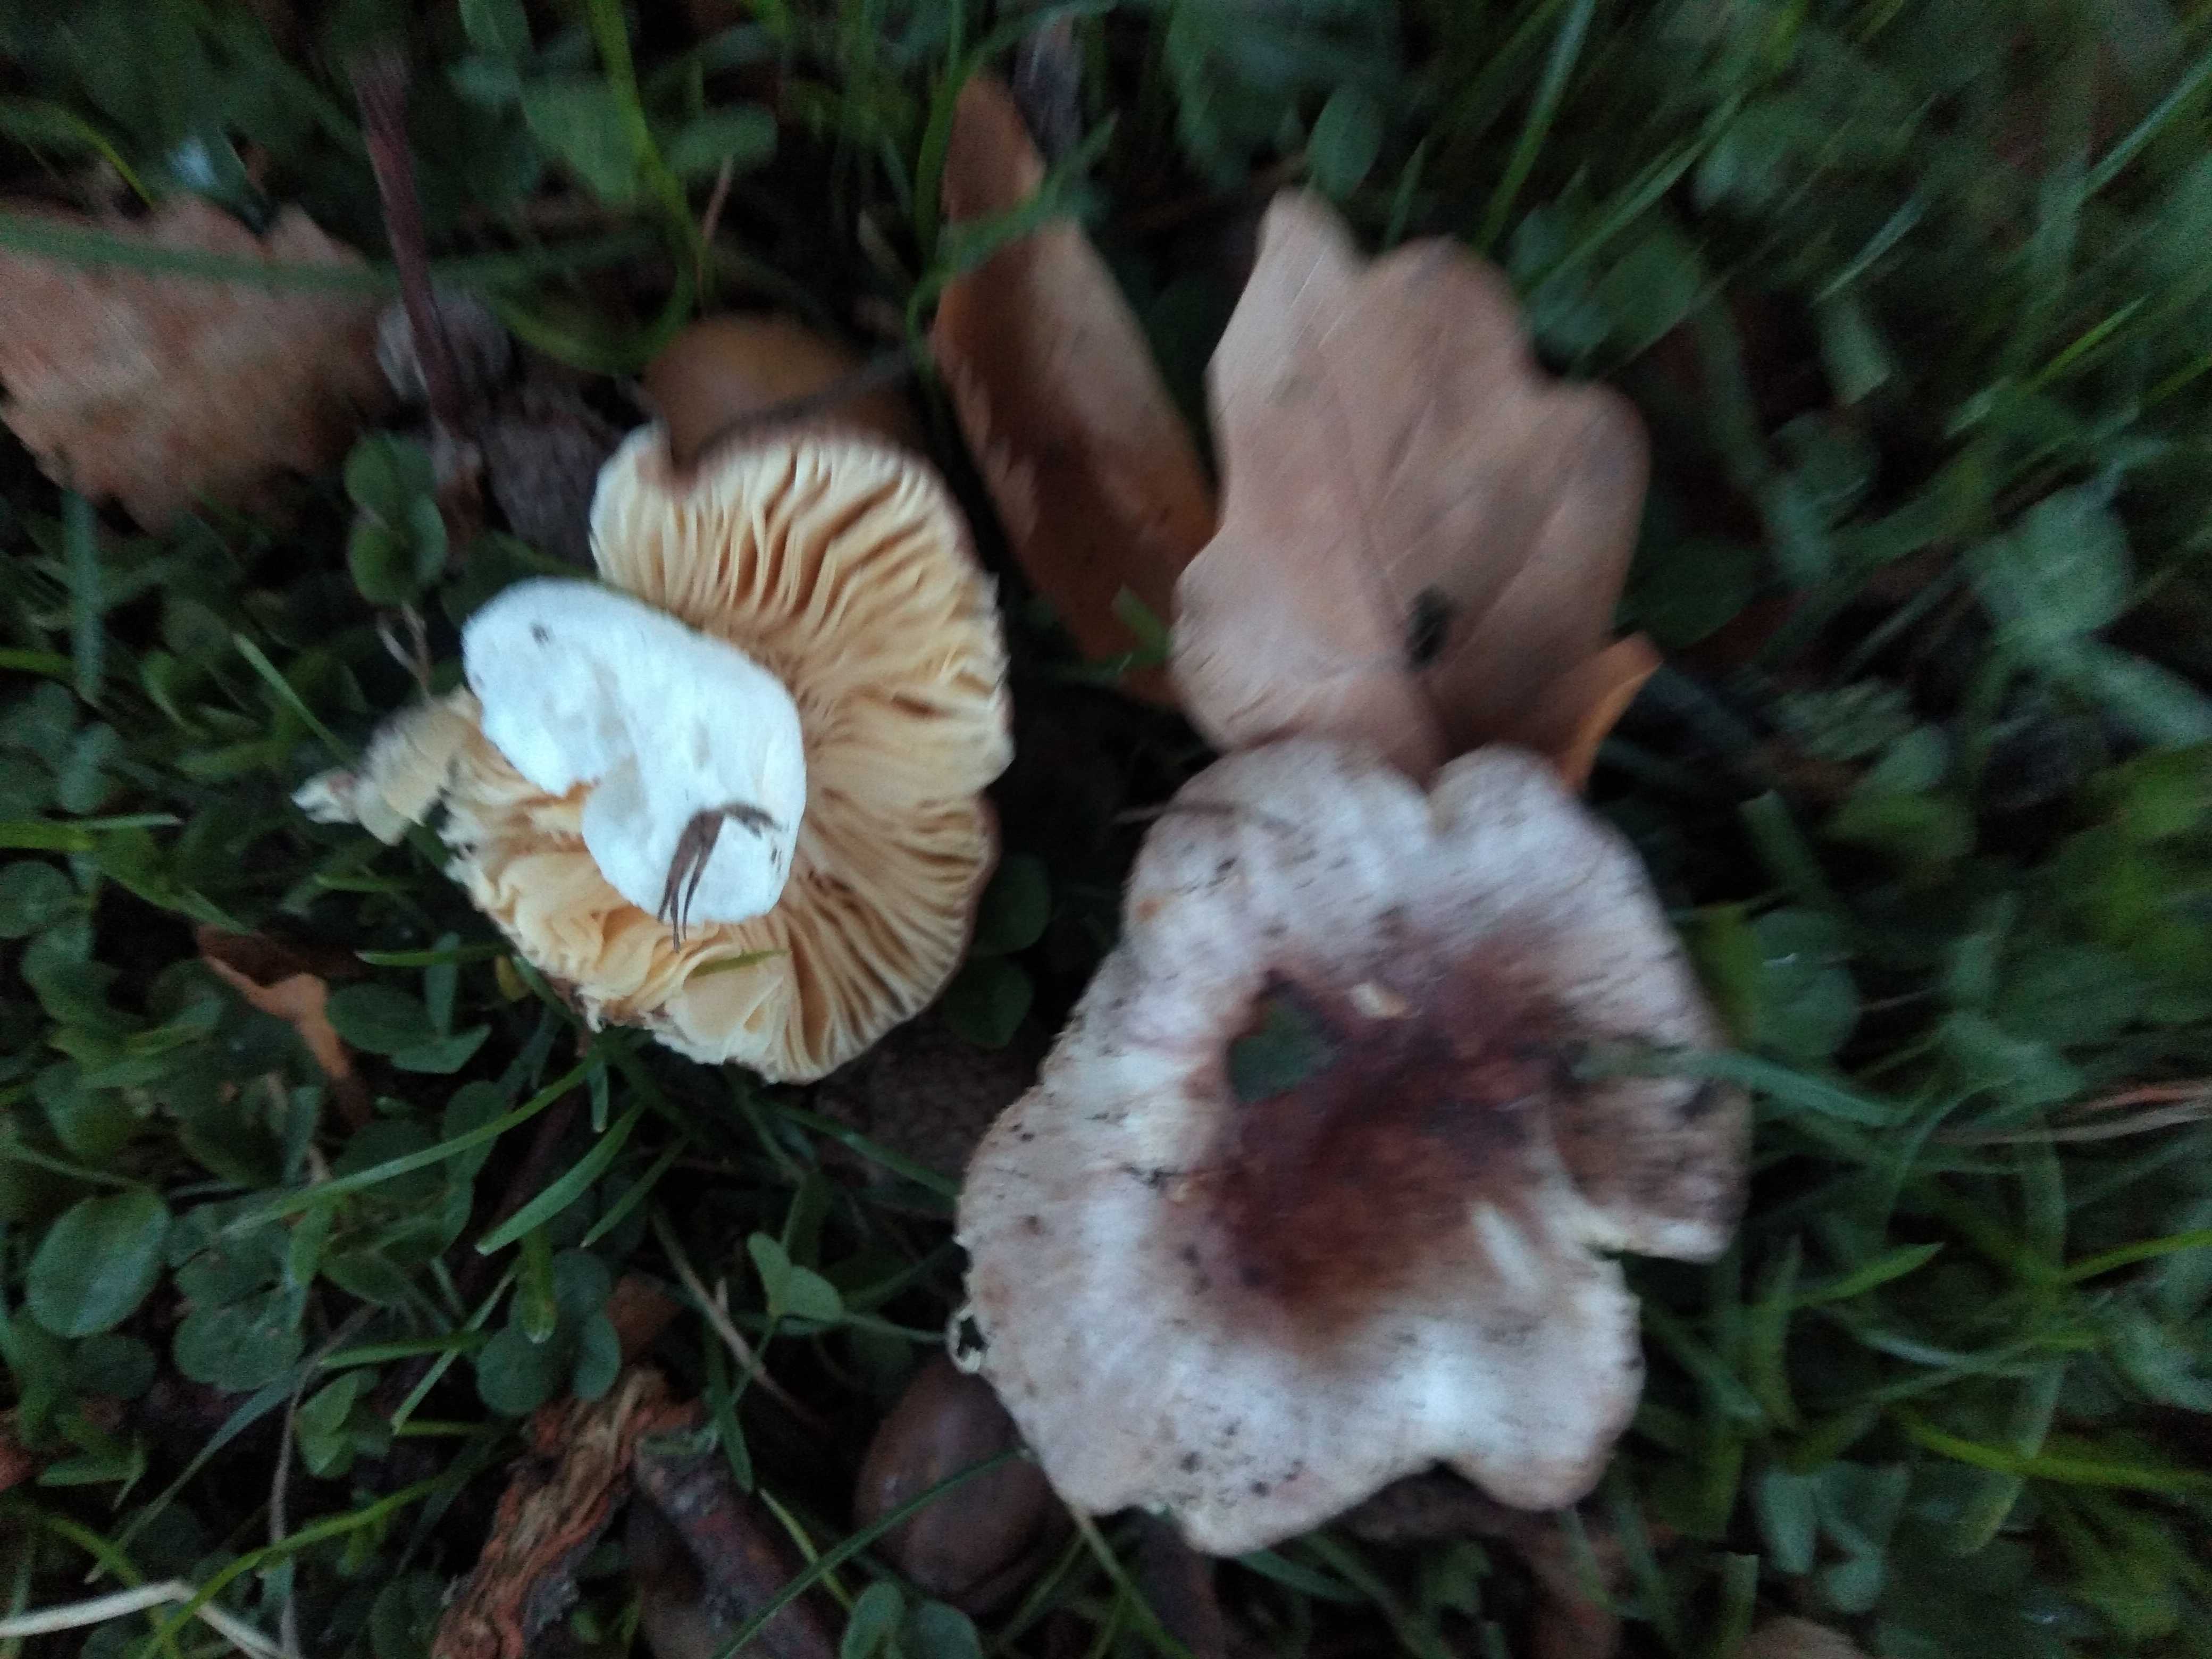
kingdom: Fungi
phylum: Basidiomycota
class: Agaricomycetes
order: Russulales
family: Russulaceae
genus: Russula
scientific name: Russula odorata
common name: duft-skørhat
